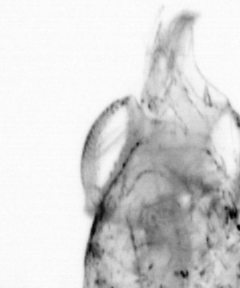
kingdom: Animalia
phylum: Arthropoda
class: Copepoda
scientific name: Copepoda
